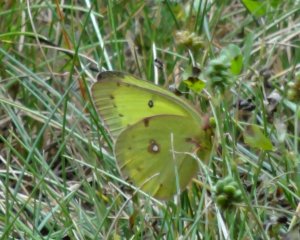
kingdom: Animalia
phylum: Arthropoda
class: Insecta
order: Lepidoptera
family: Pieridae
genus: Colias
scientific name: Colias philodice
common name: Clouded Sulphur
